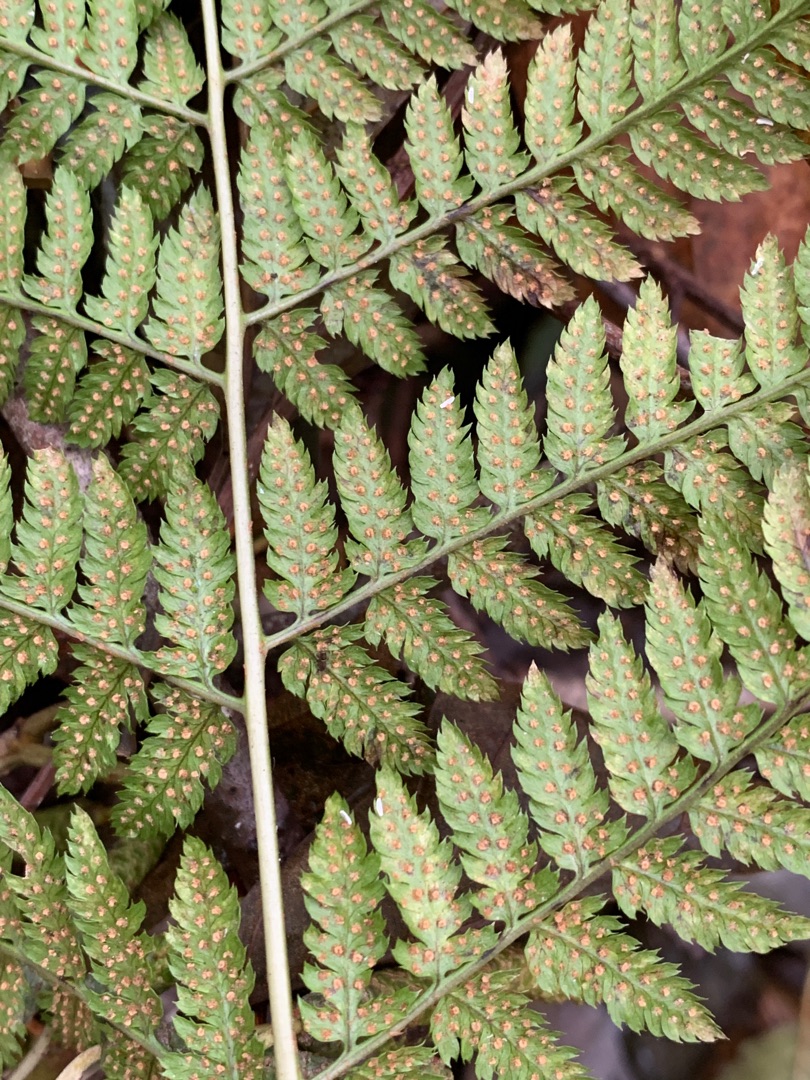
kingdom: Plantae
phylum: Tracheophyta
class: Polypodiopsida
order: Polypodiales
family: Dryopteridaceae
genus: Dryopteris
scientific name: Dryopteris dilatata
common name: Bredbladet mangeløv
